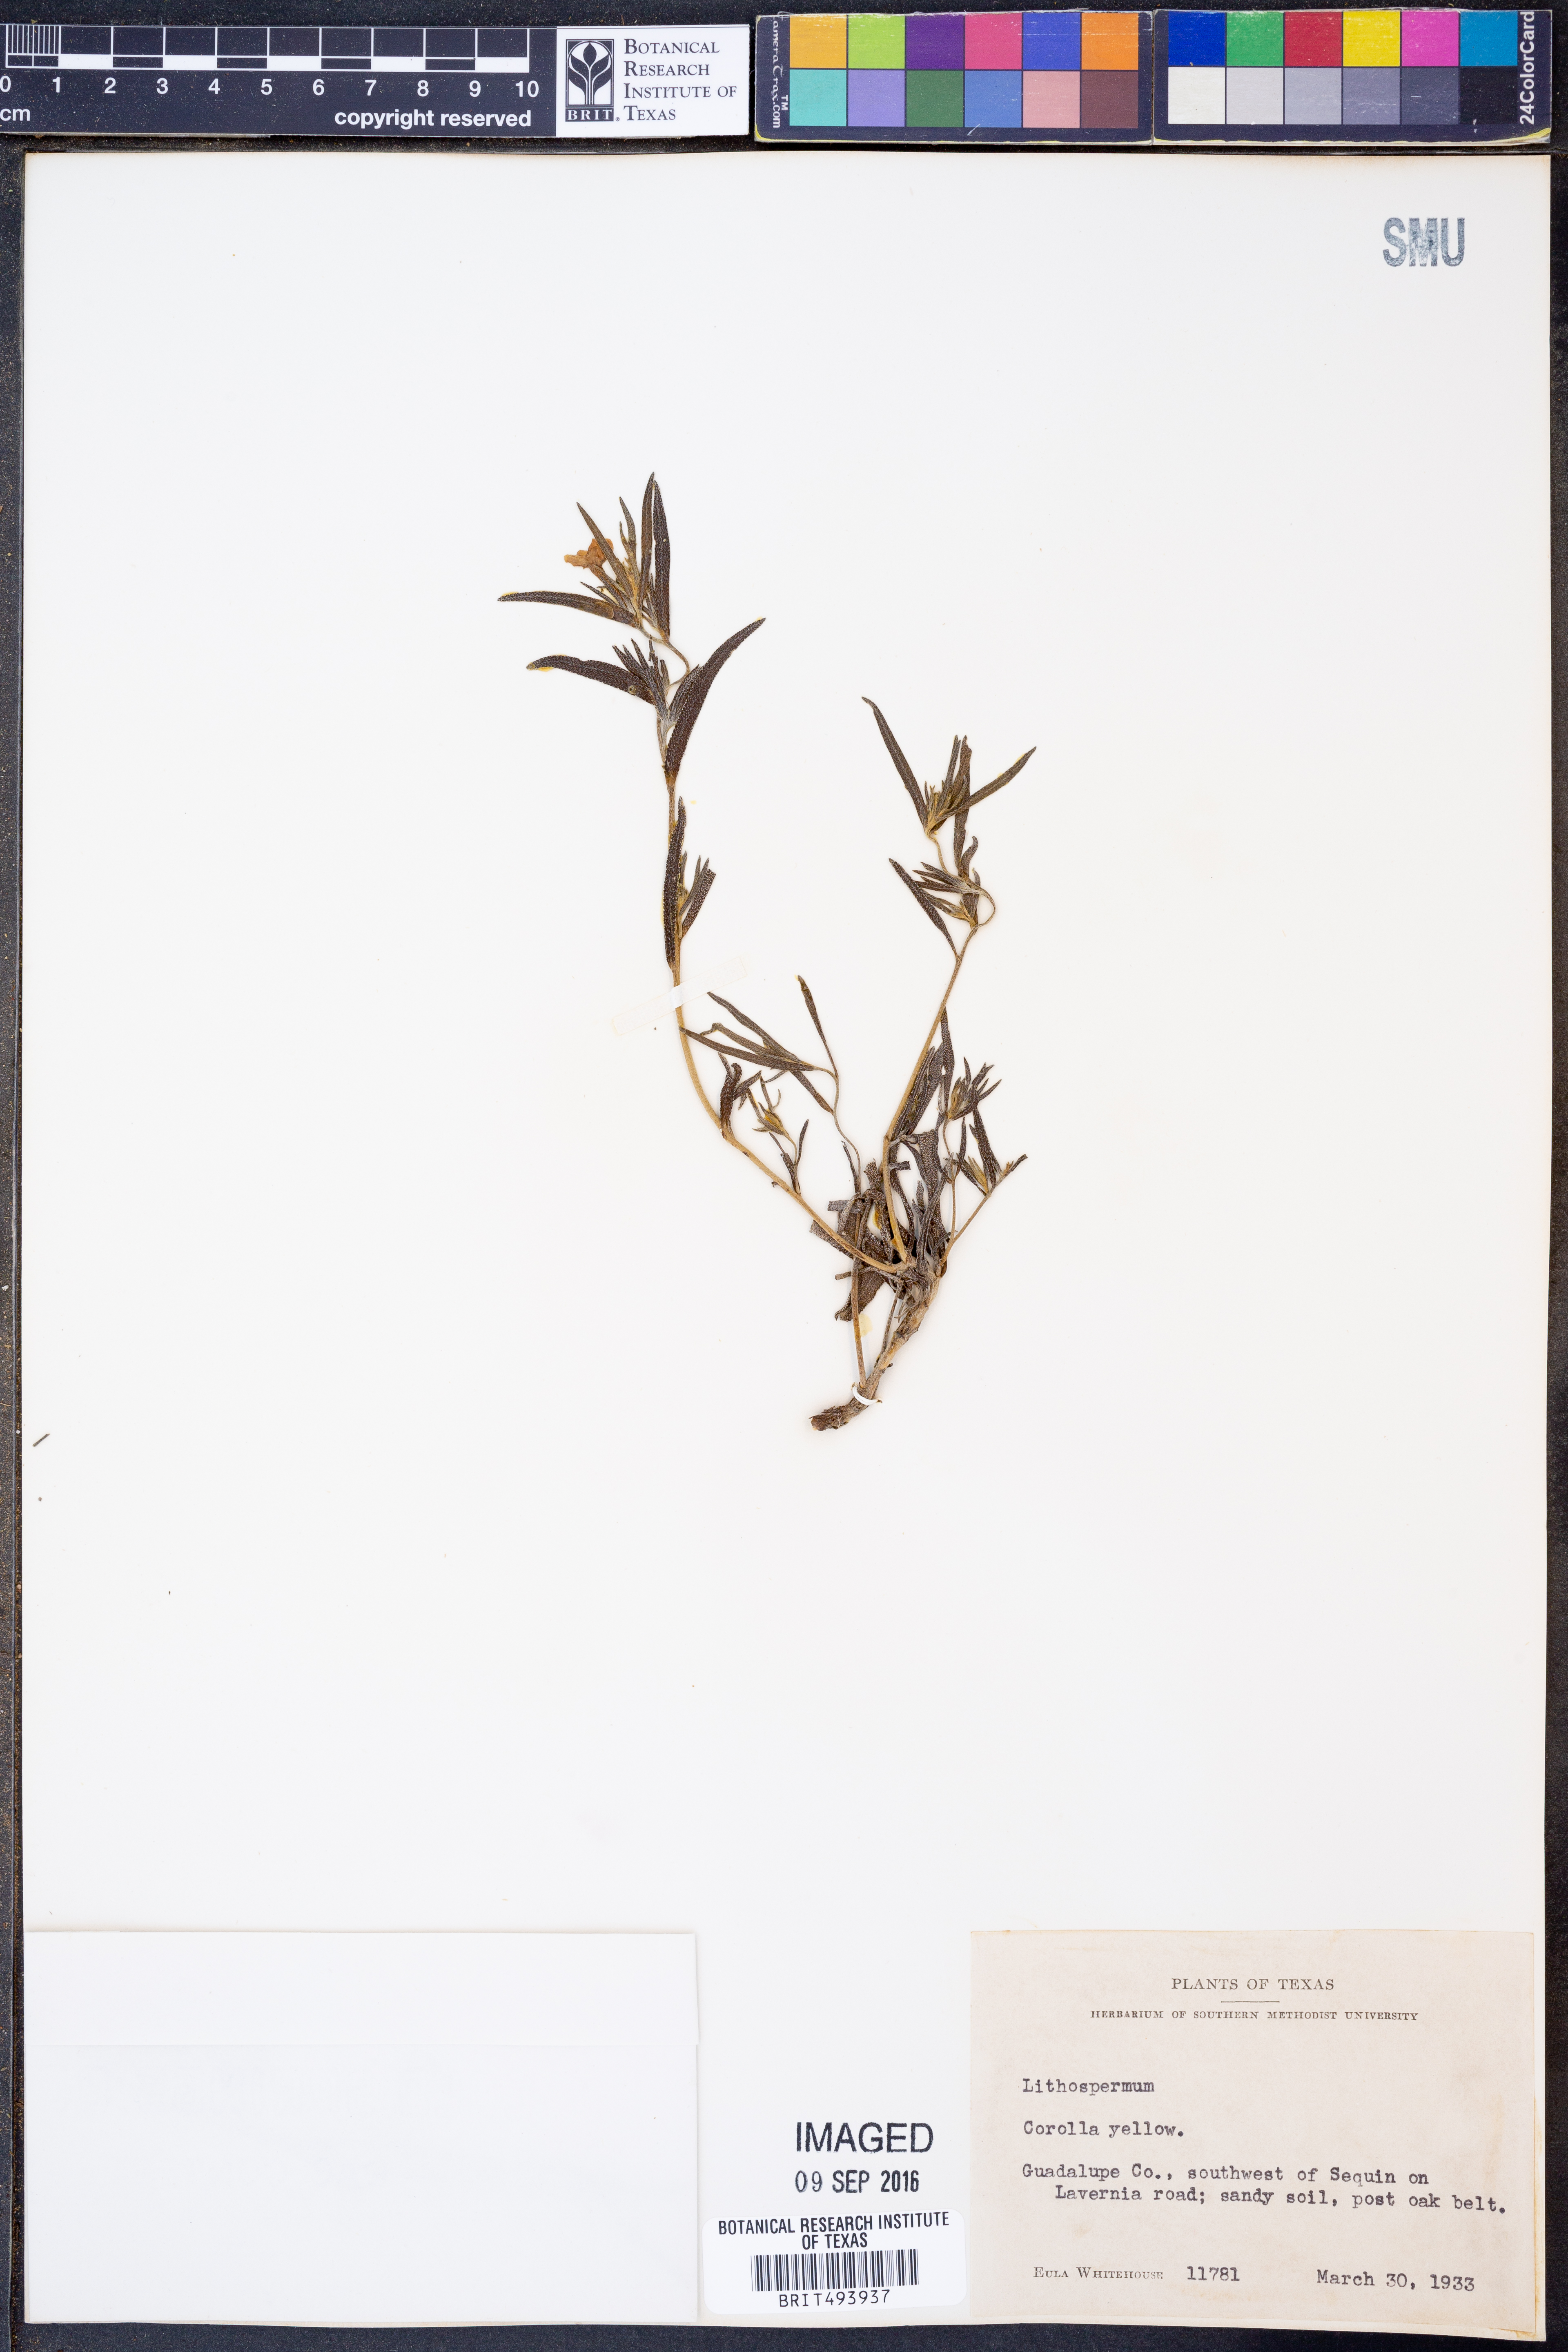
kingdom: Plantae
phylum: Tracheophyta
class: Magnoliopsida
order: Boraginales
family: Boraginaceae
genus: Lithospermum
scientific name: Lithospermum
